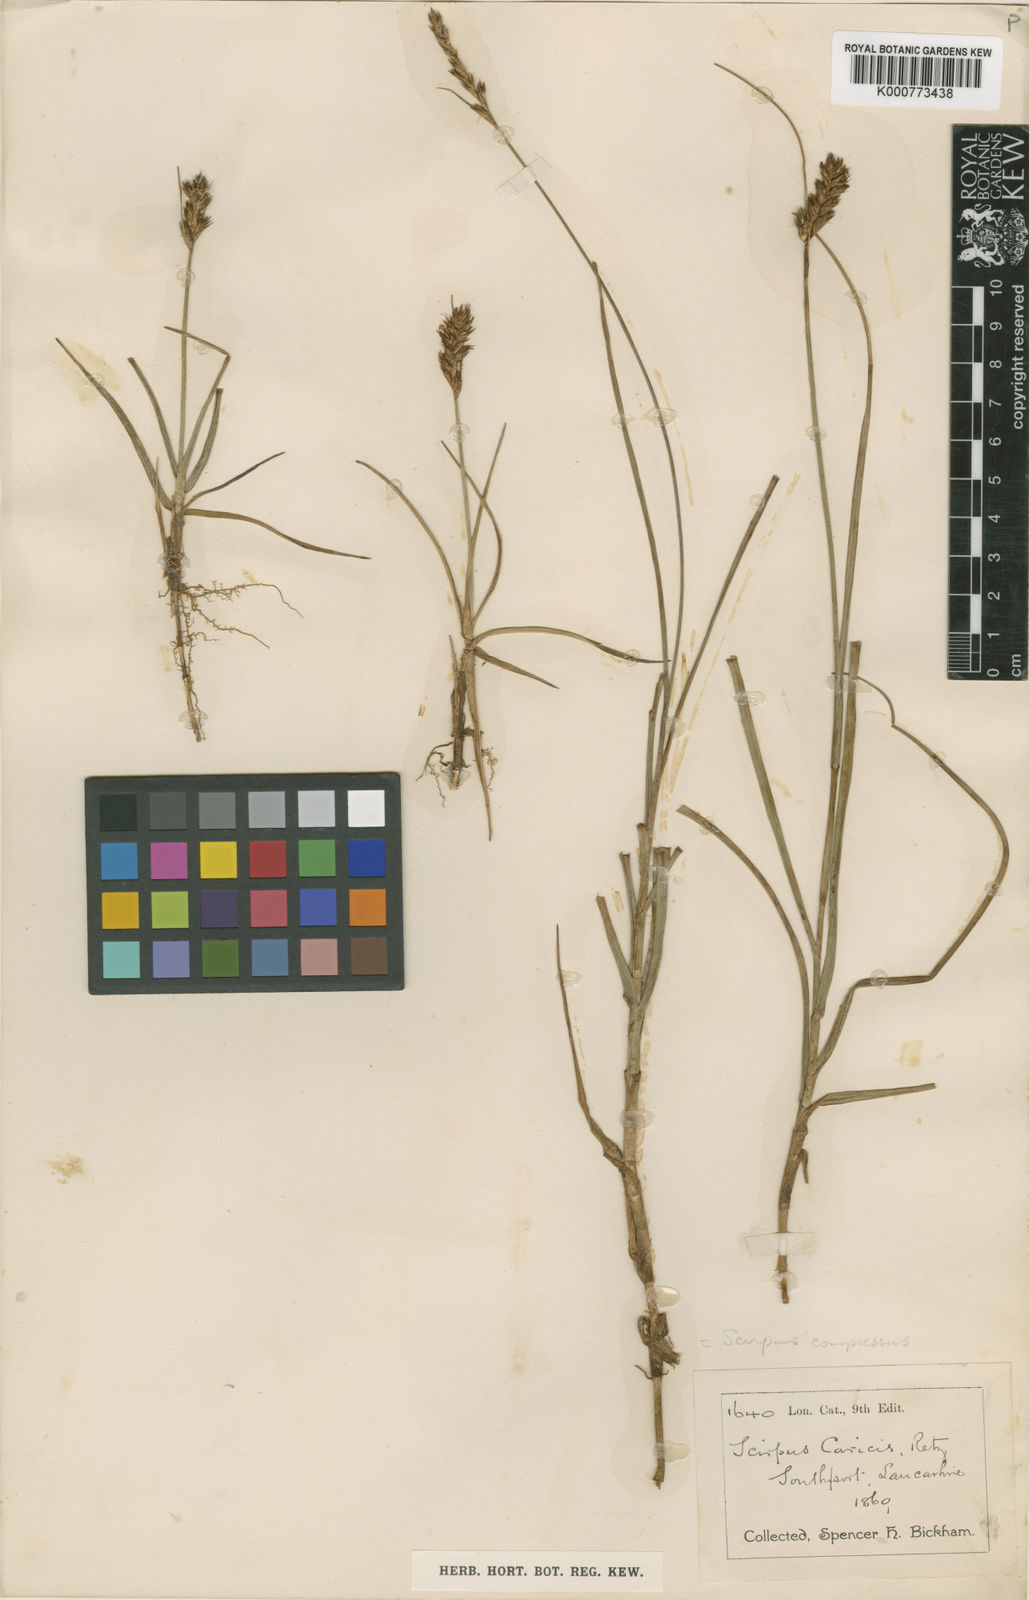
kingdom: Plantae
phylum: Tracheophyta
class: Liliopsida
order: Poales
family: Cyperaceae
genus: Blysmus
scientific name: Blysmus compressus
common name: Flat-sedge
